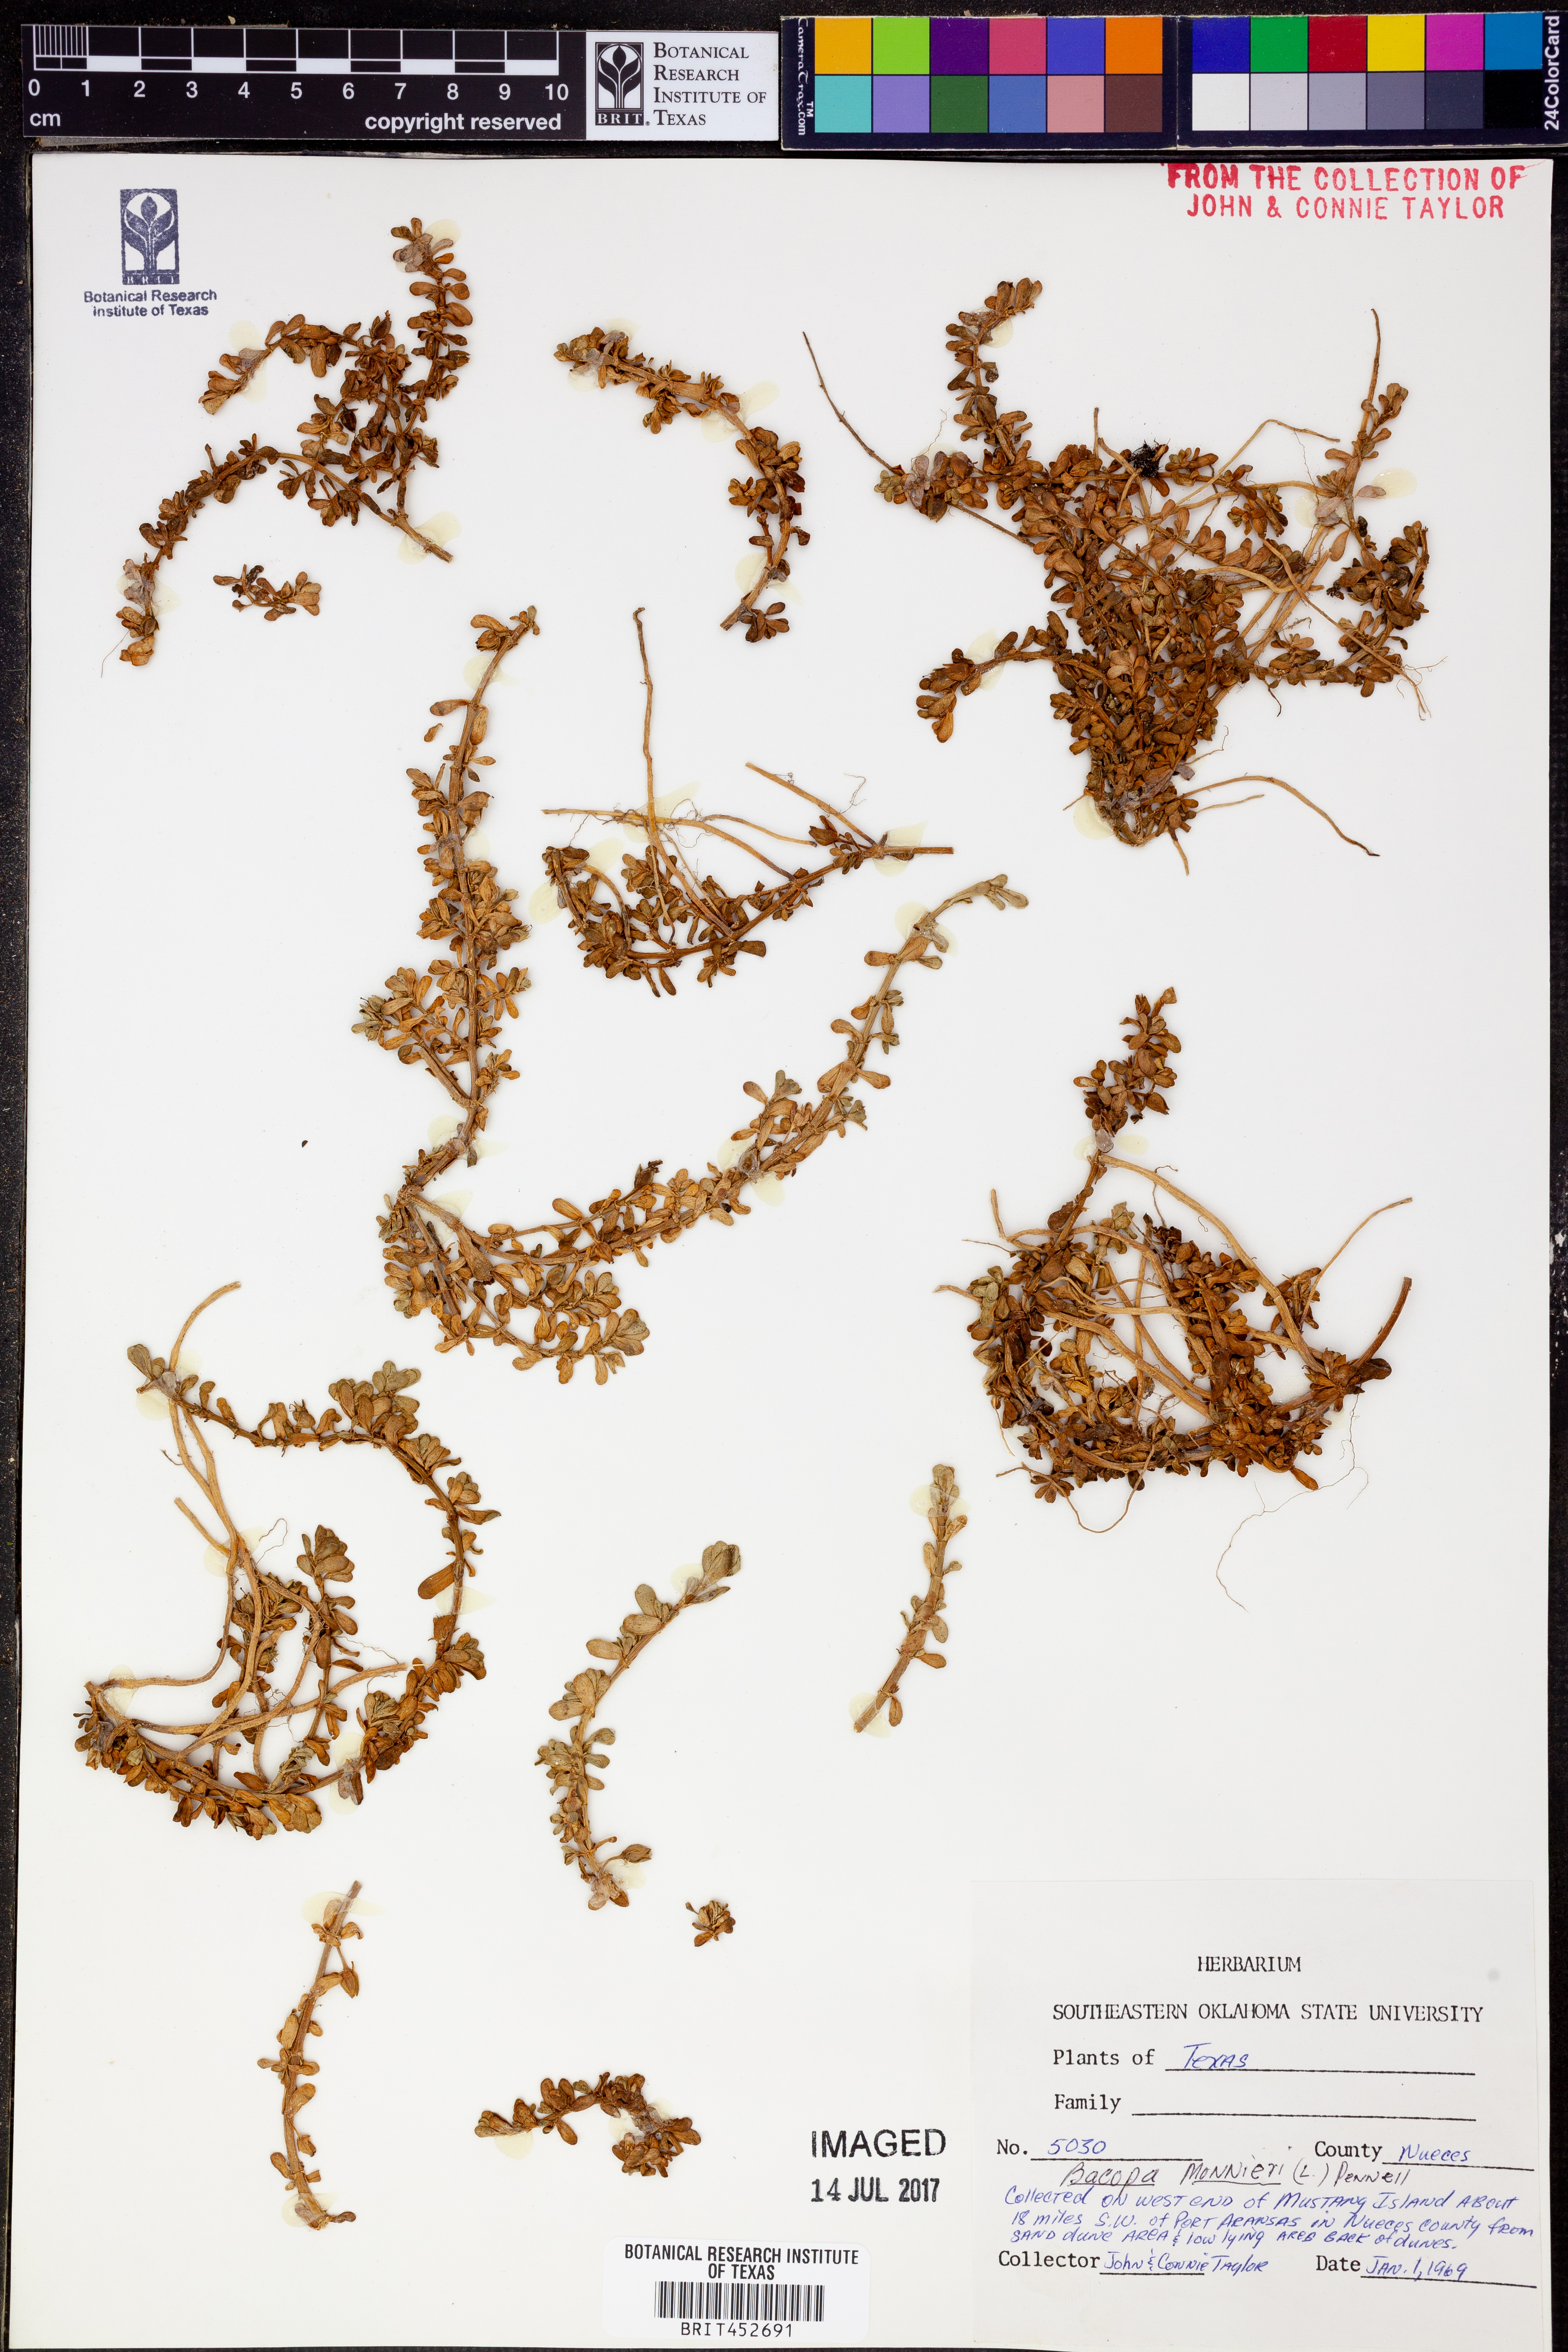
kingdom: Plantae
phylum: Tracheophyta
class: Magnoliopsida
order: Lamiales
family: Plantaginaceae
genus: Bacopa
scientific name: Bacopa monnieri
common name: Indian-pennywort
